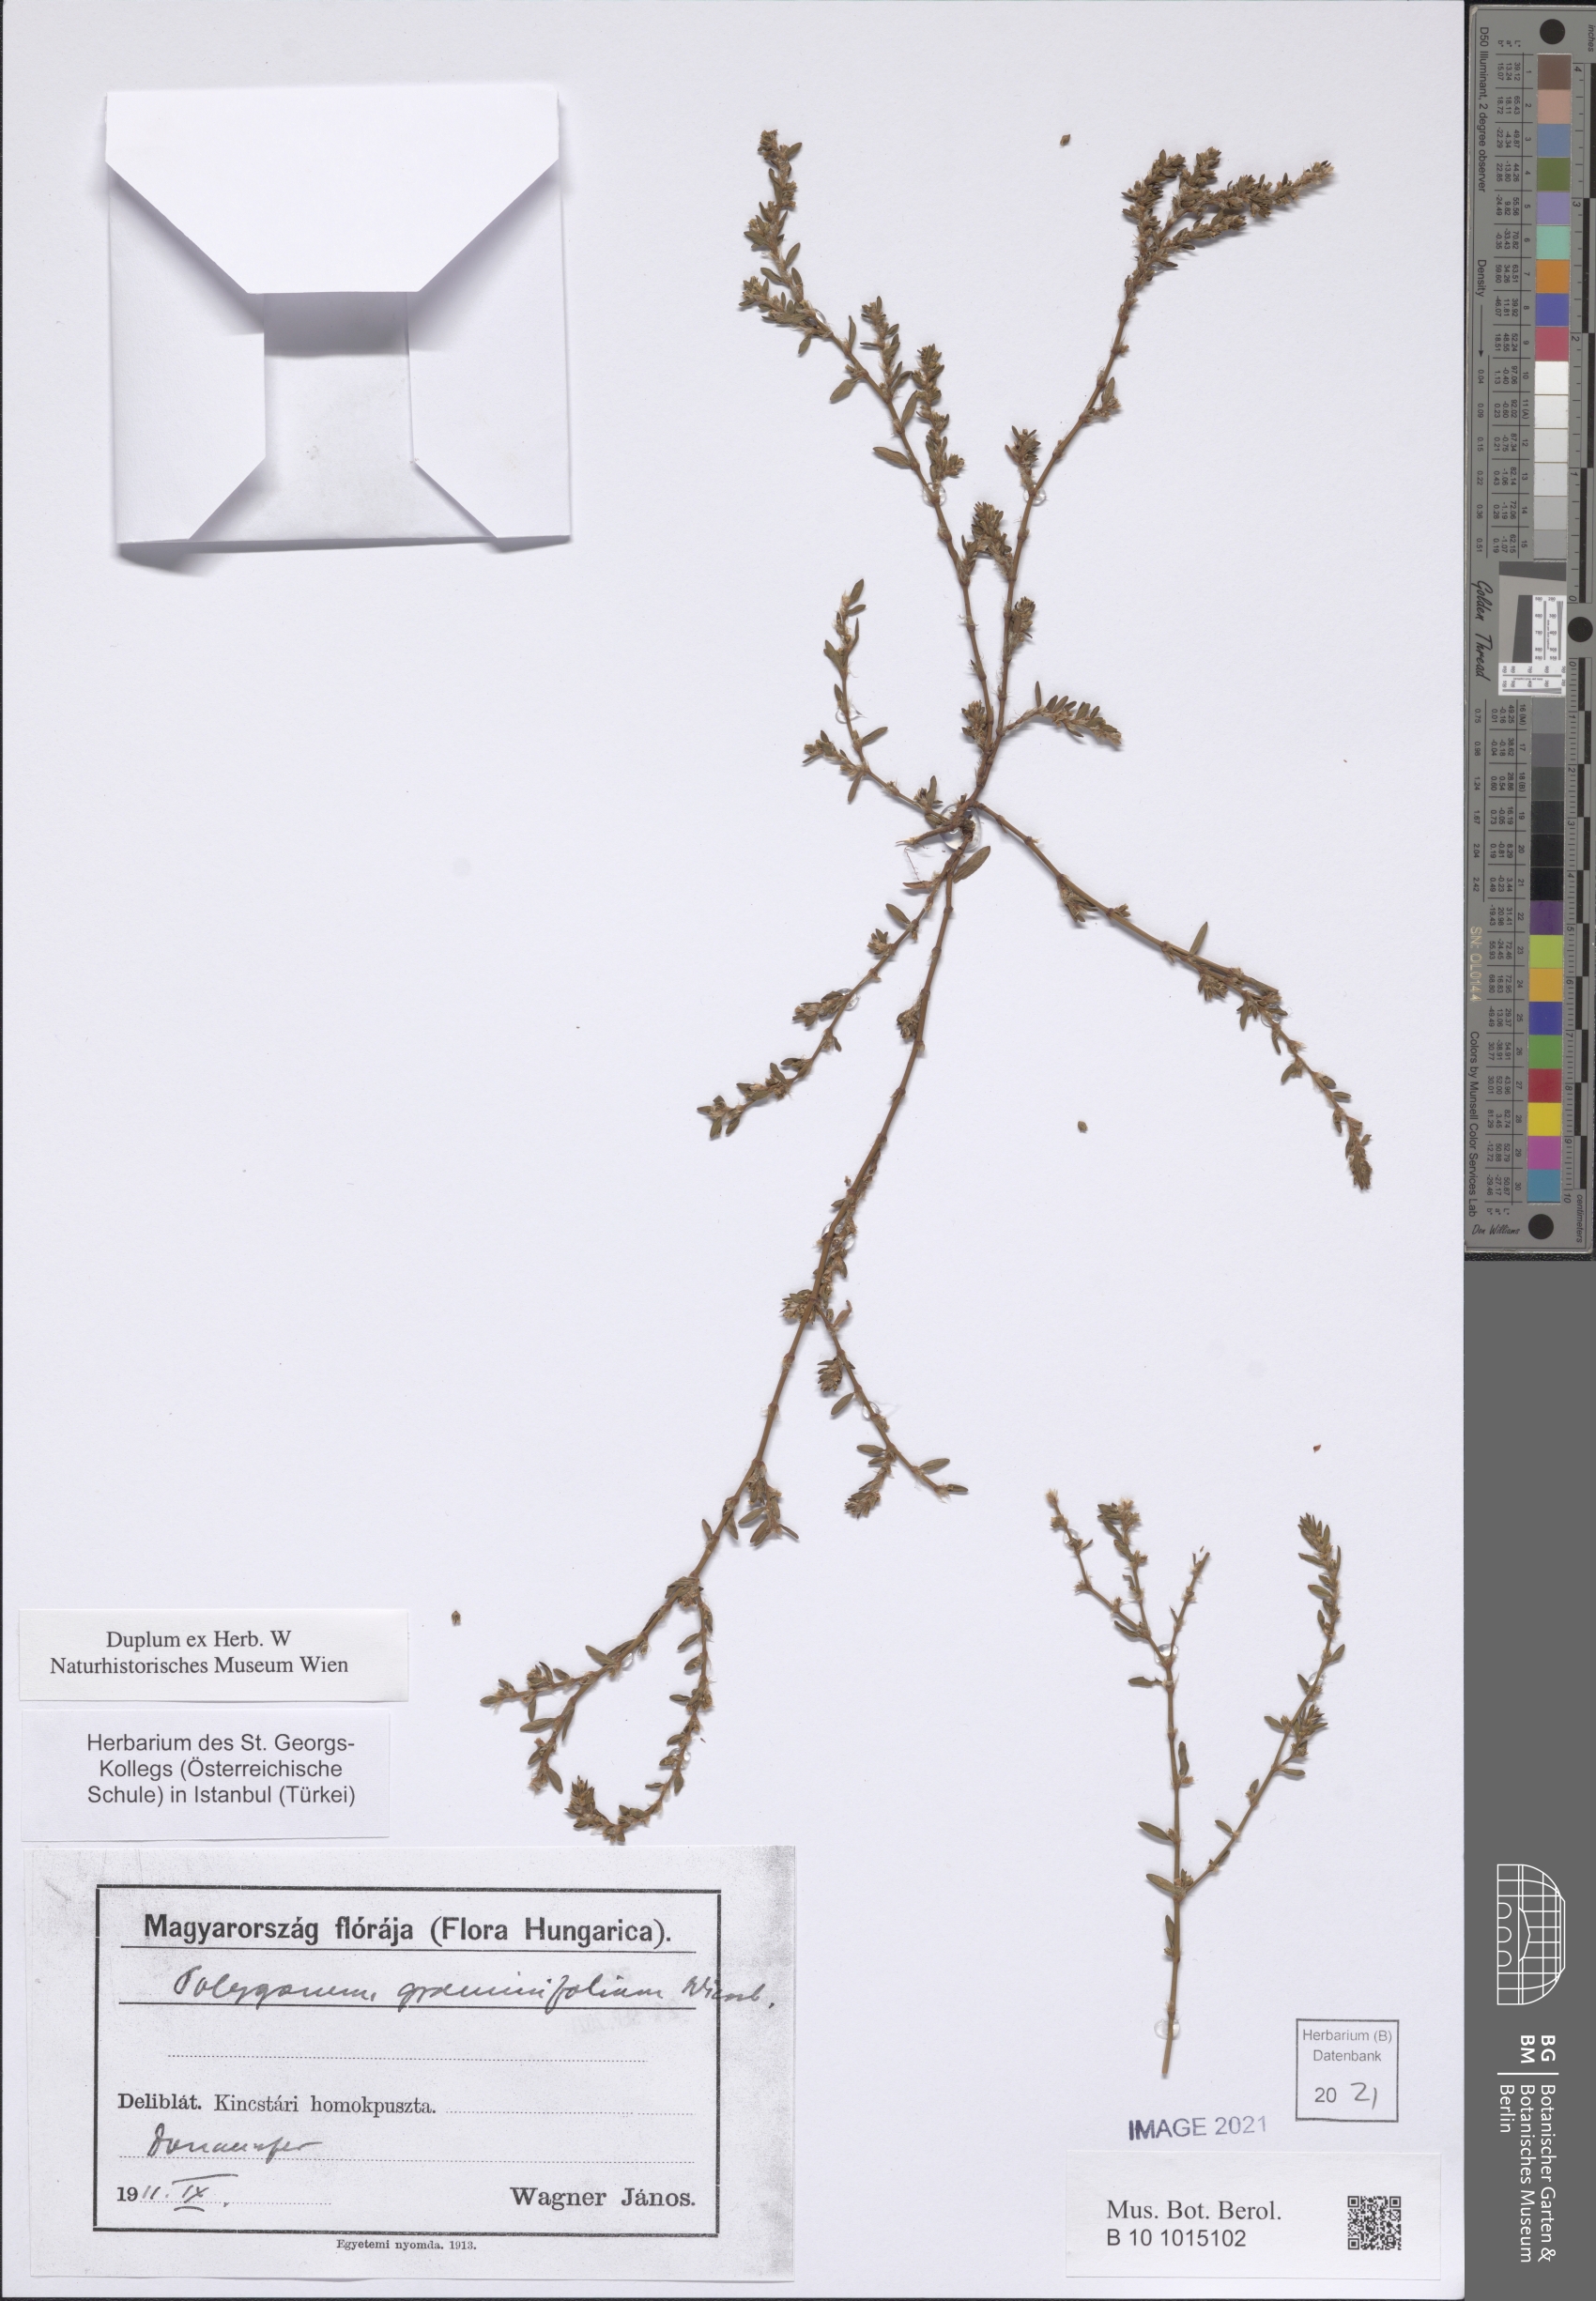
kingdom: Plantae
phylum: Tracheophyta
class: Magnoliopsida
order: Caryophyllales
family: Polygonaceae
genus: Polygonum
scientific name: Polygonum graminifolium
